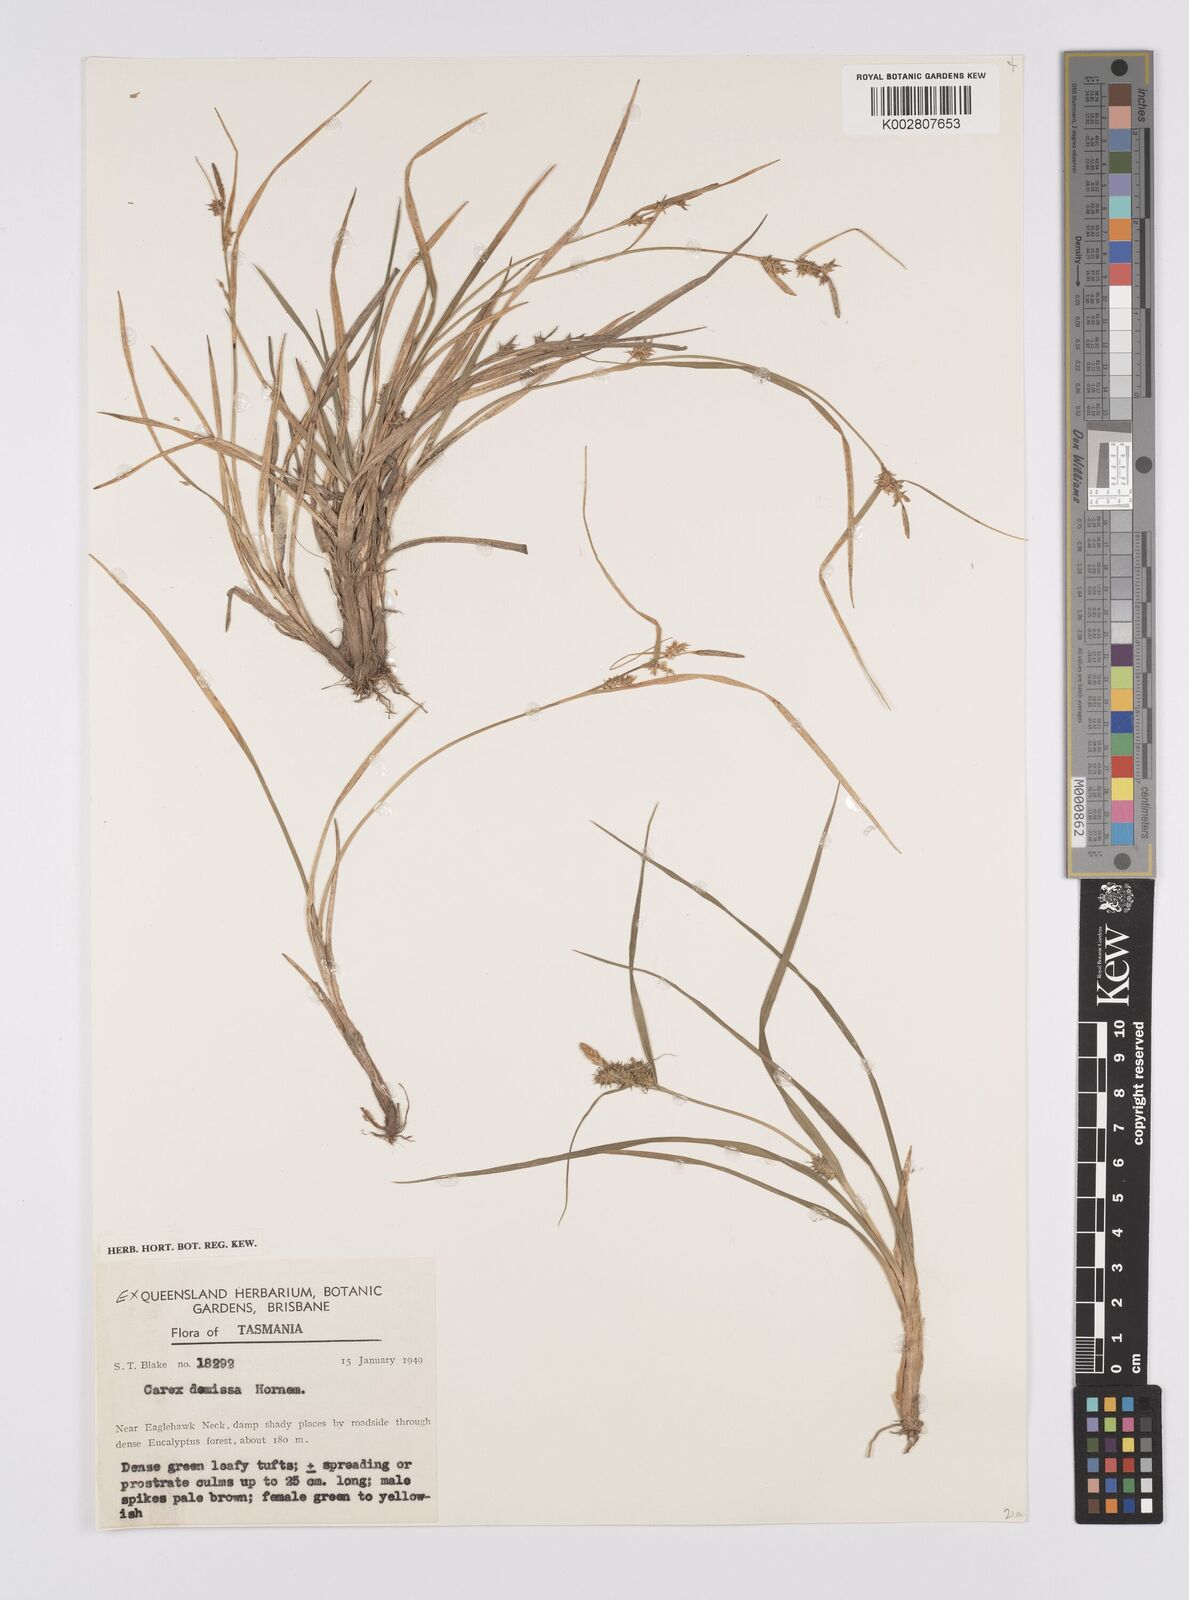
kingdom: Plantae
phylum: Tracheophyta
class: Liliopsida
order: Poales
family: Cyperaceae
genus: Carex
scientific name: Carex demissa
